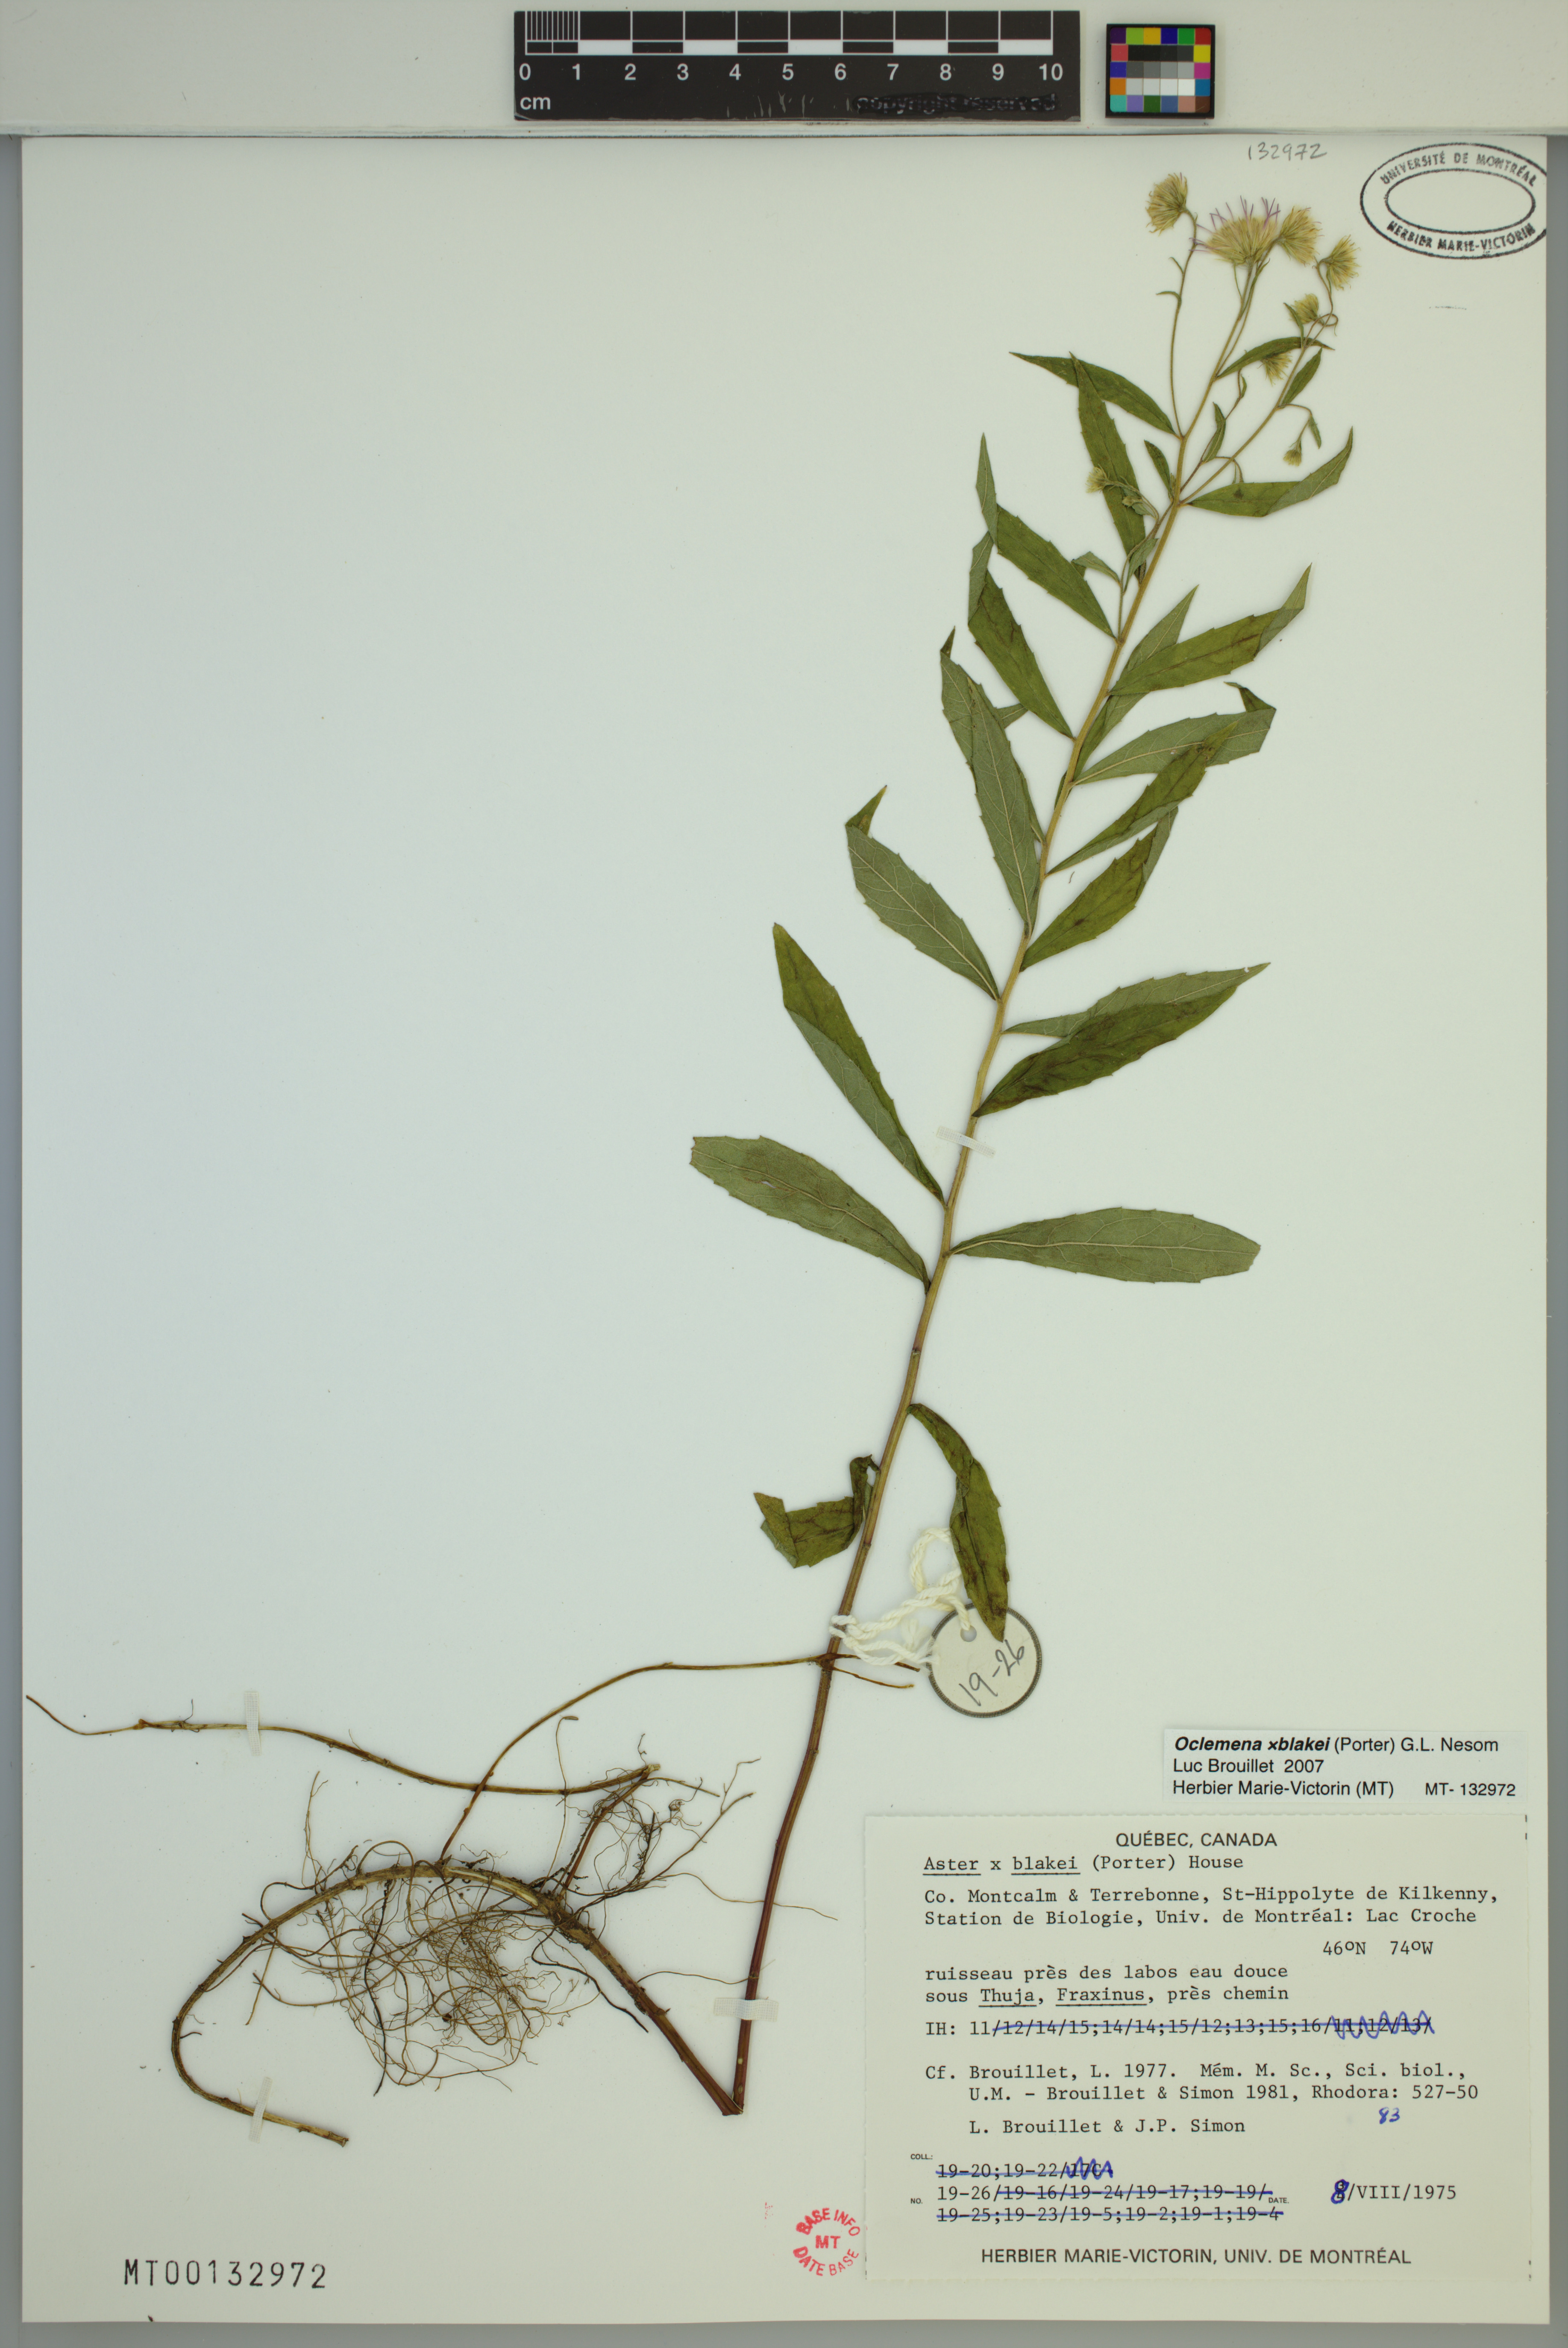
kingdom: Plantae
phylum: Tracheophyta
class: Magnoliopsida
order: Asterales
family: Asteraceae
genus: Oclemena
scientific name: Oclemena blakei
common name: Blake's aster
